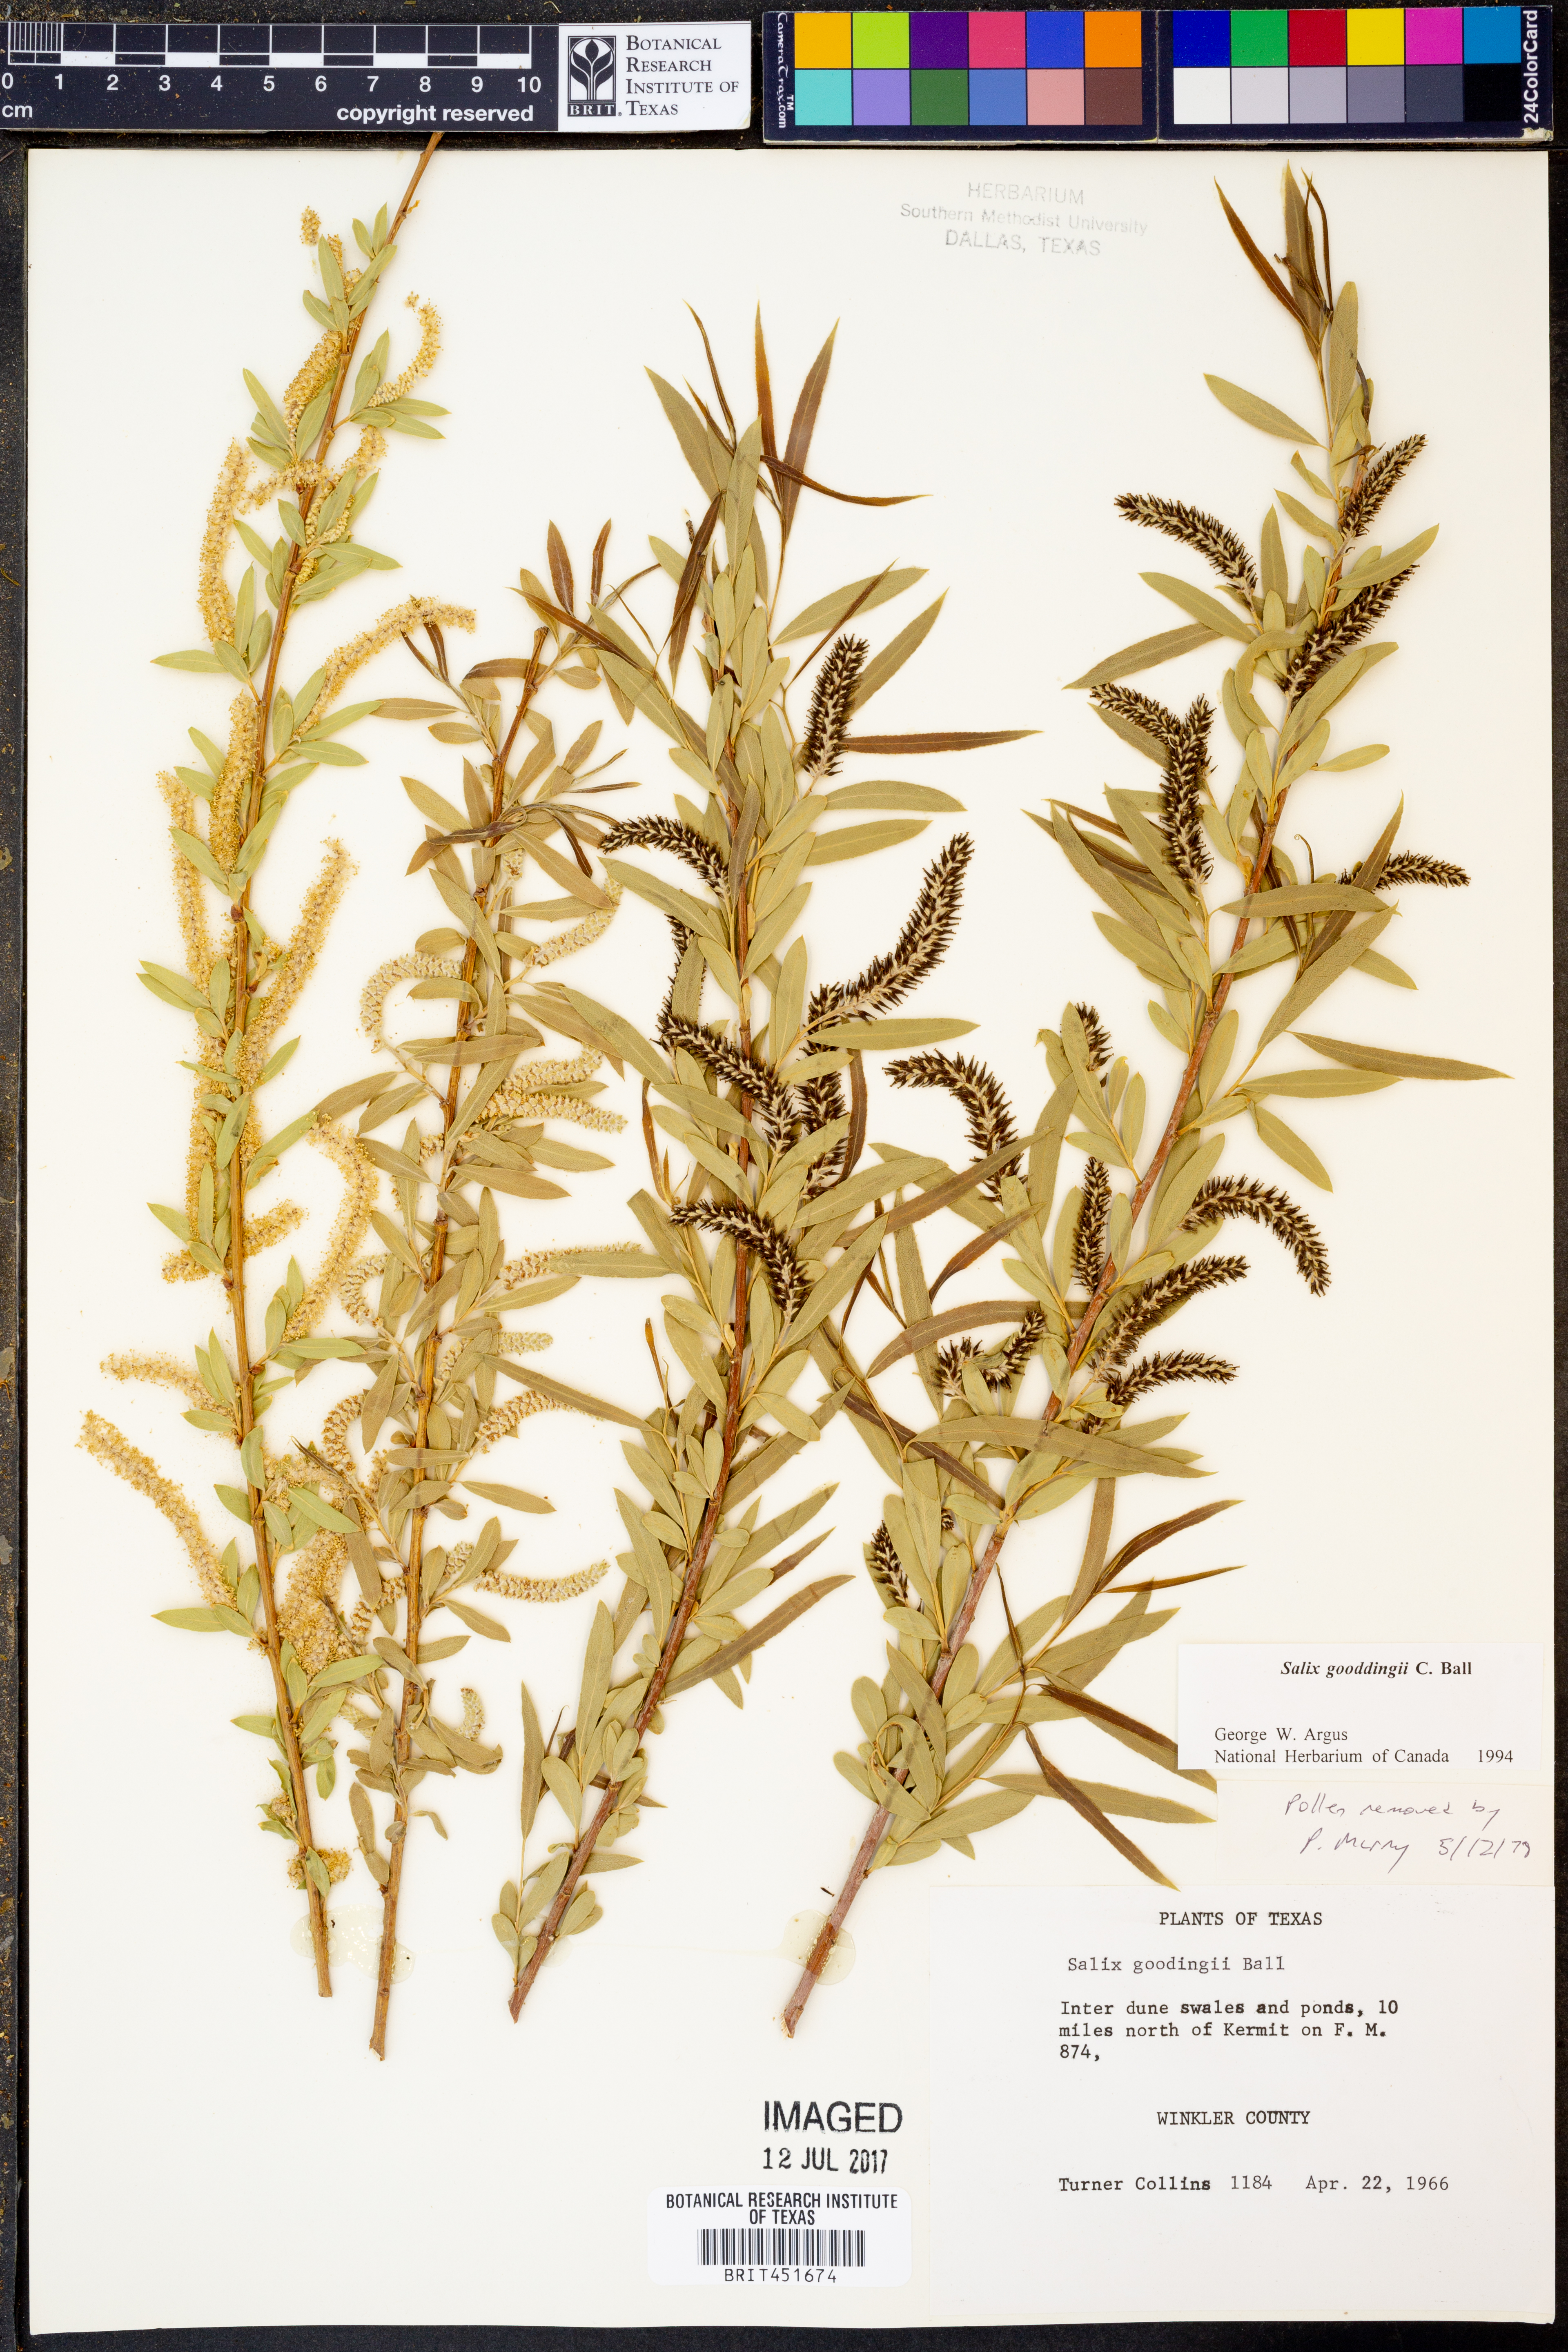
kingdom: Plantae
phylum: Tracheophyta
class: Magnoliopsida
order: Malpighiales
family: Salicaceae
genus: Salix
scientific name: Salix gooddingii
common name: Goodding's willow
